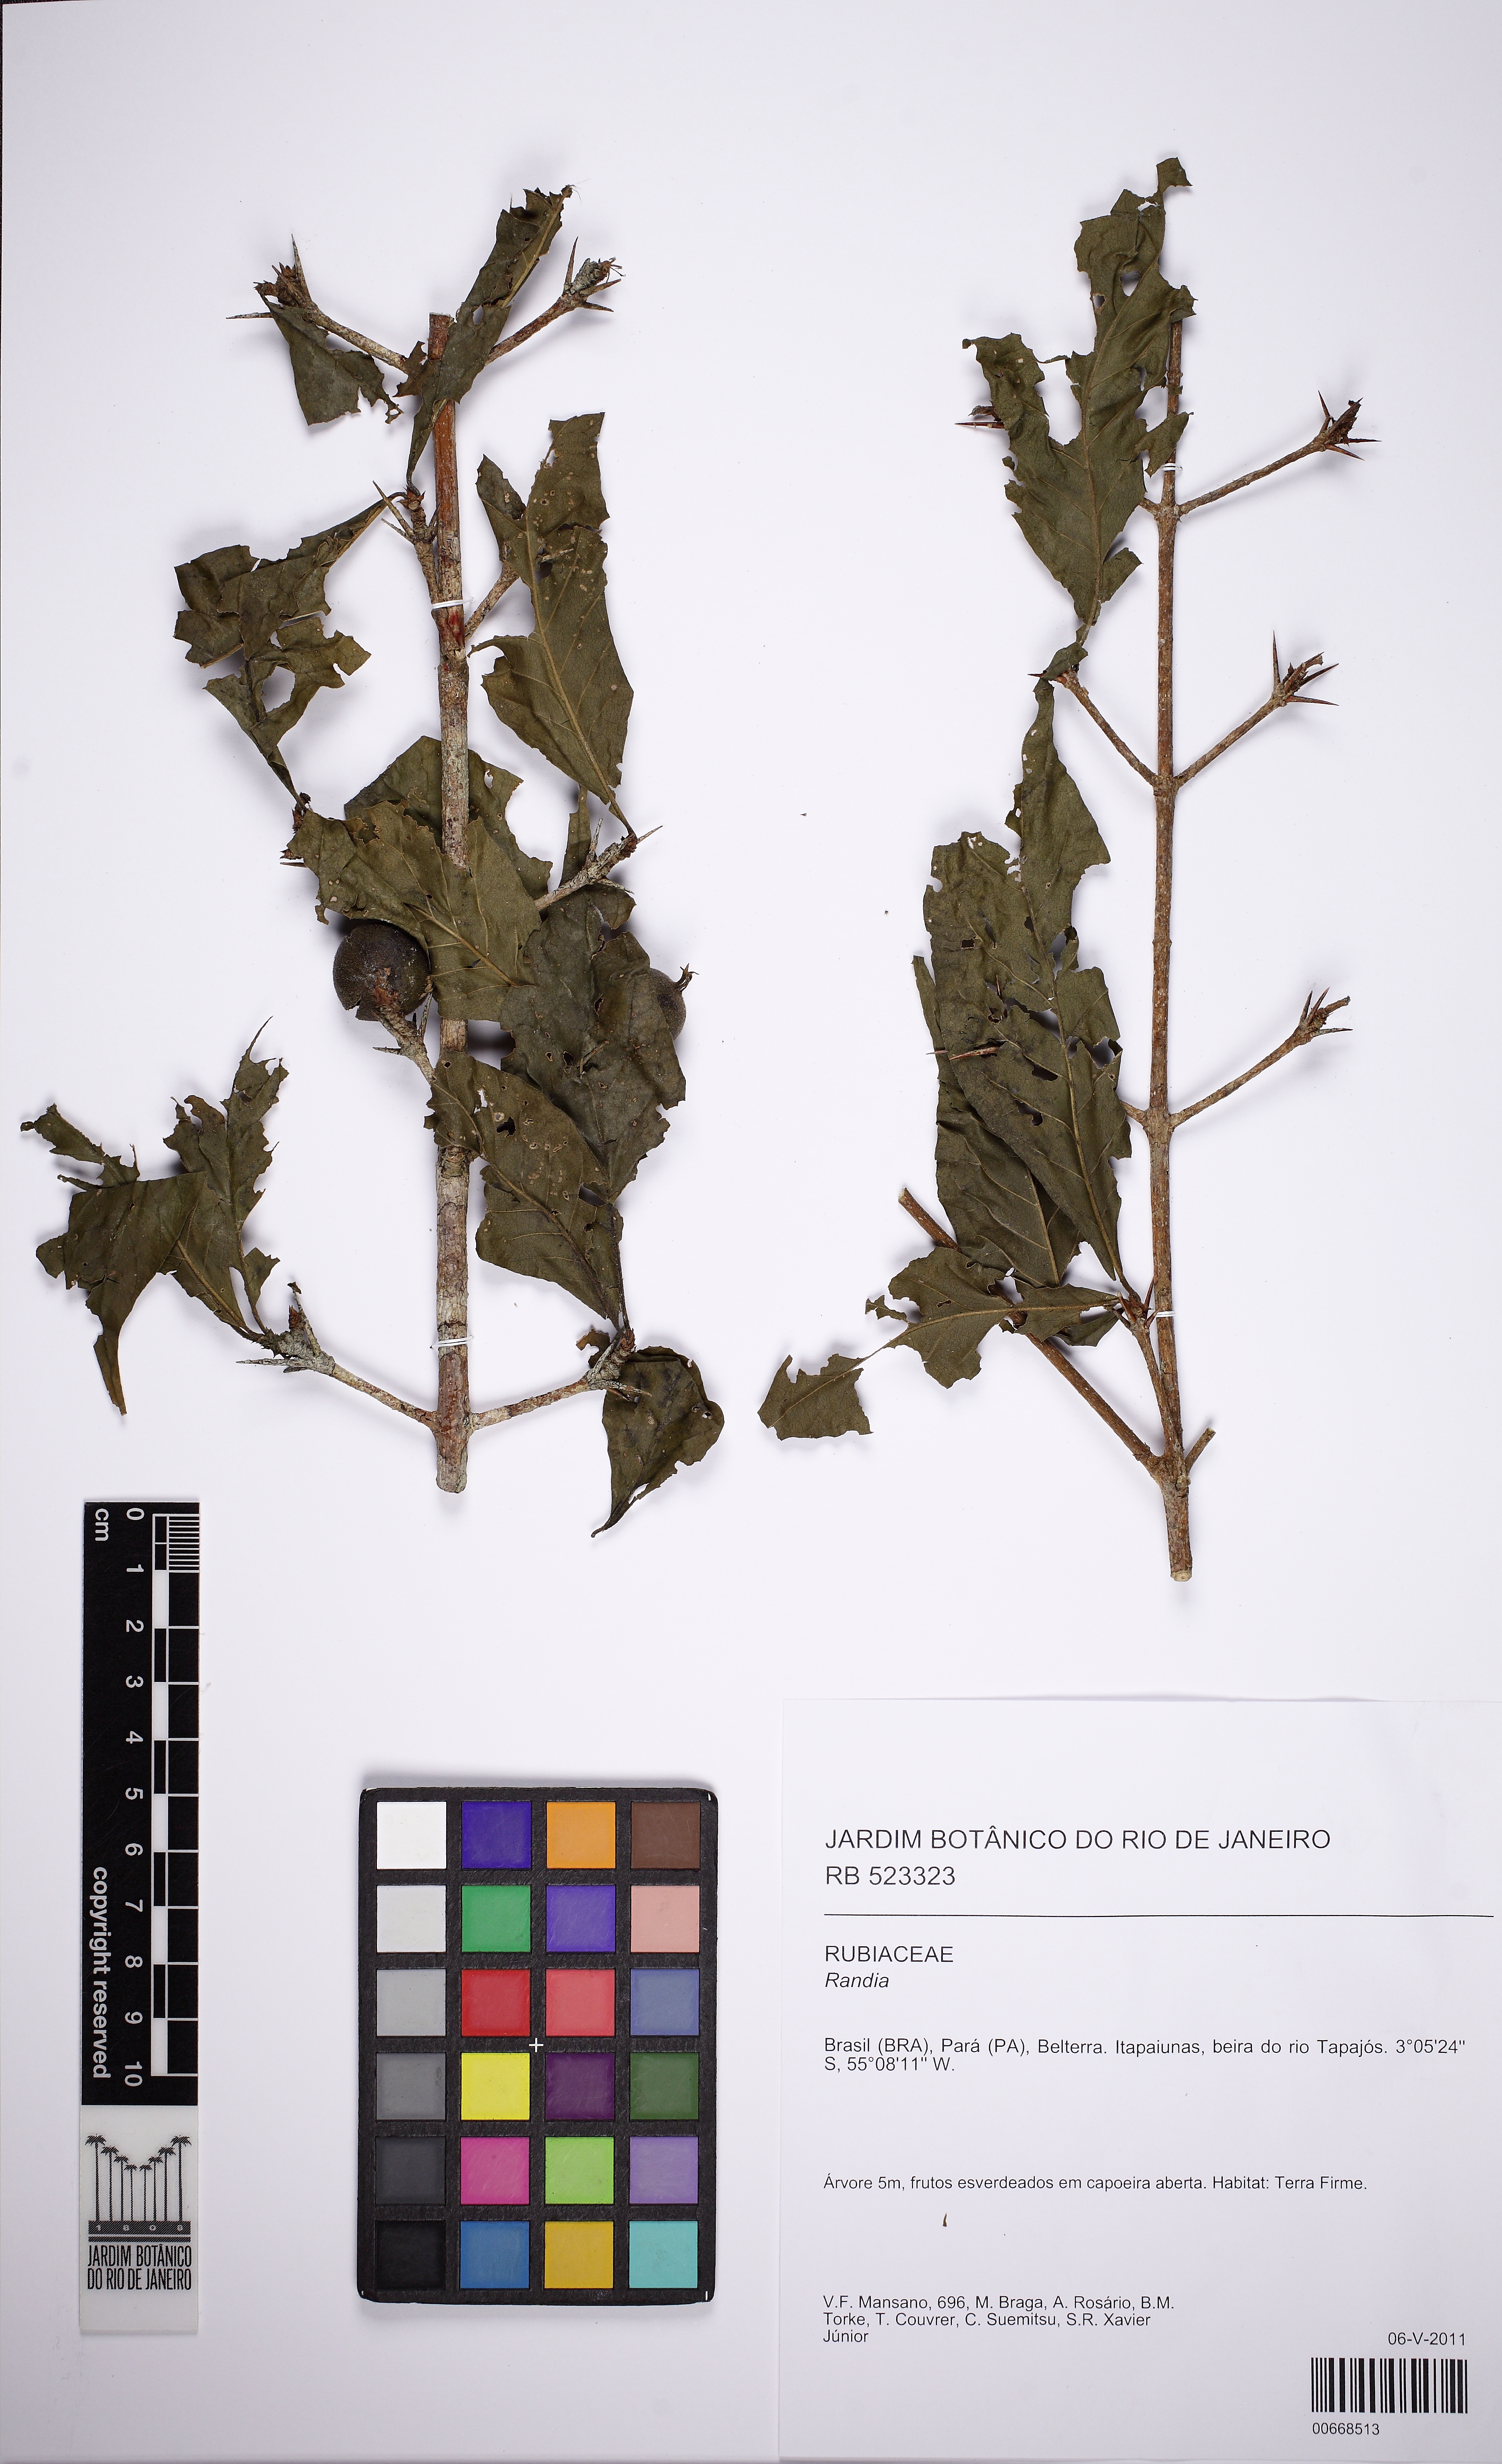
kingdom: Plantae
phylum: Tracheophyta
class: Magnoliopsida
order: Gentianales
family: Rubiaceae
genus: Randia
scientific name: Randia
